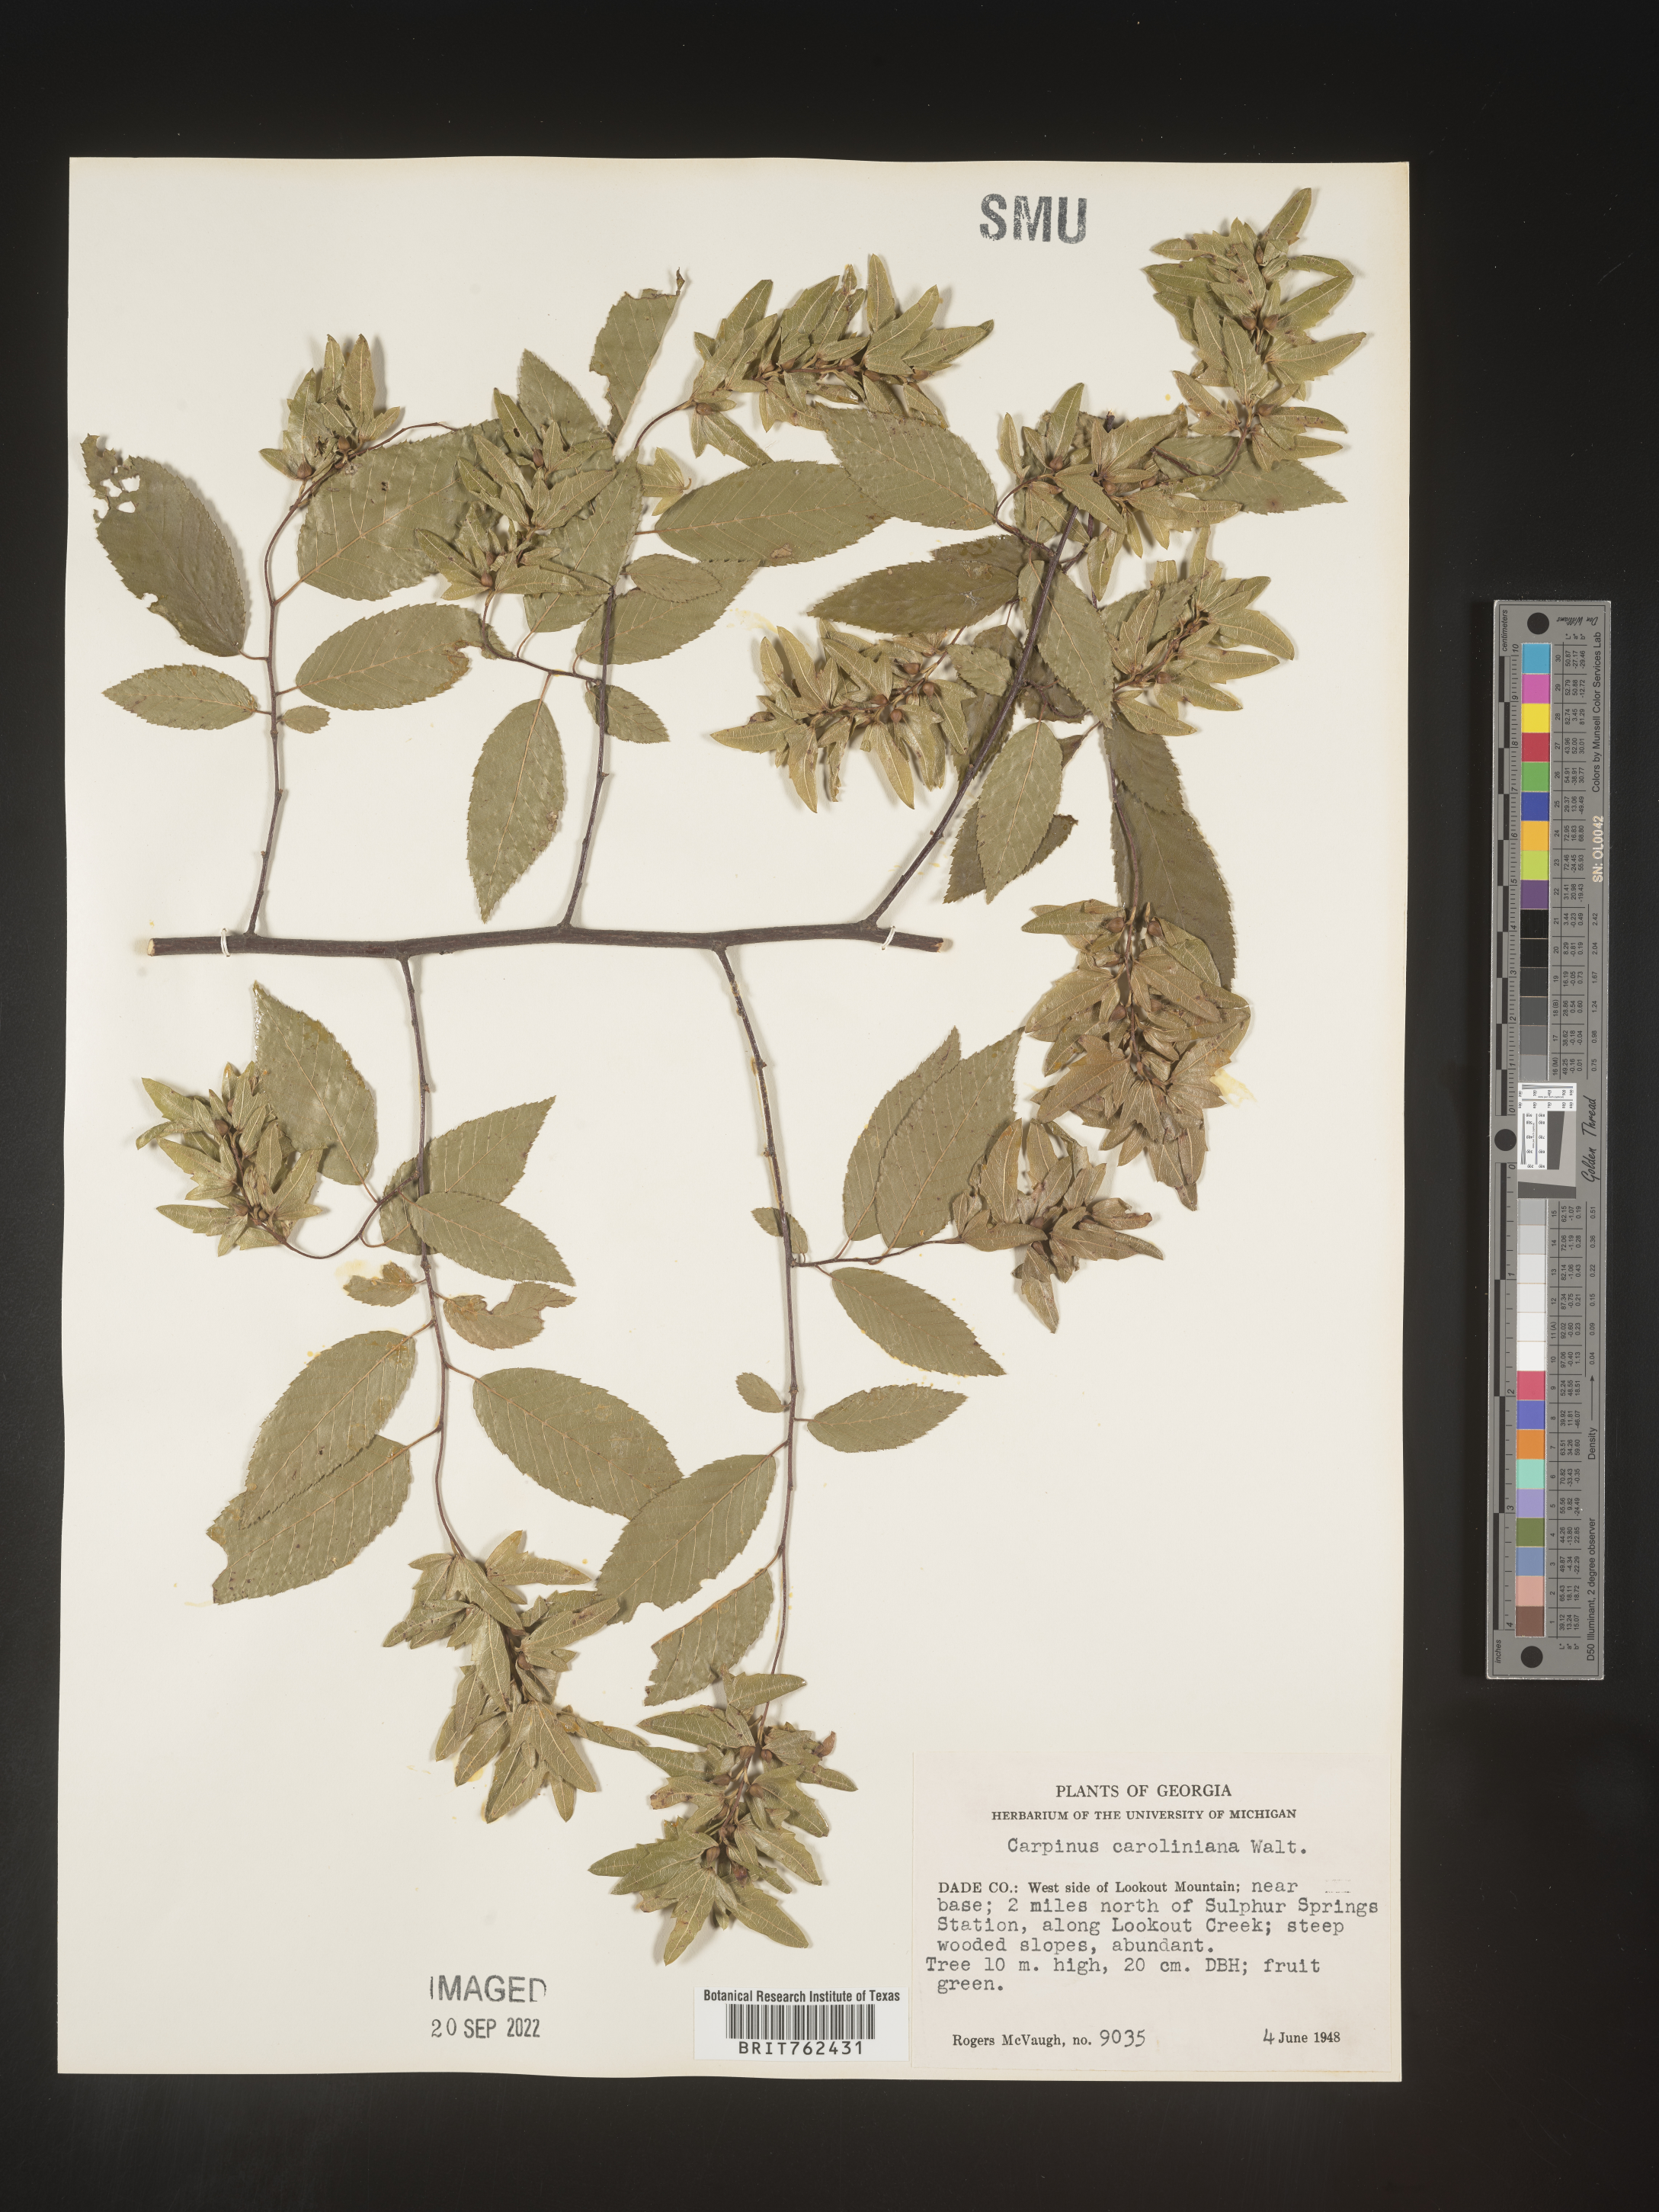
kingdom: Plantae
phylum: Tracheophyta
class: Magnoliopsida
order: Fagales
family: Betulaceae
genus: Carpinus
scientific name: Carpinus caroliniana
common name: American hornbeam
